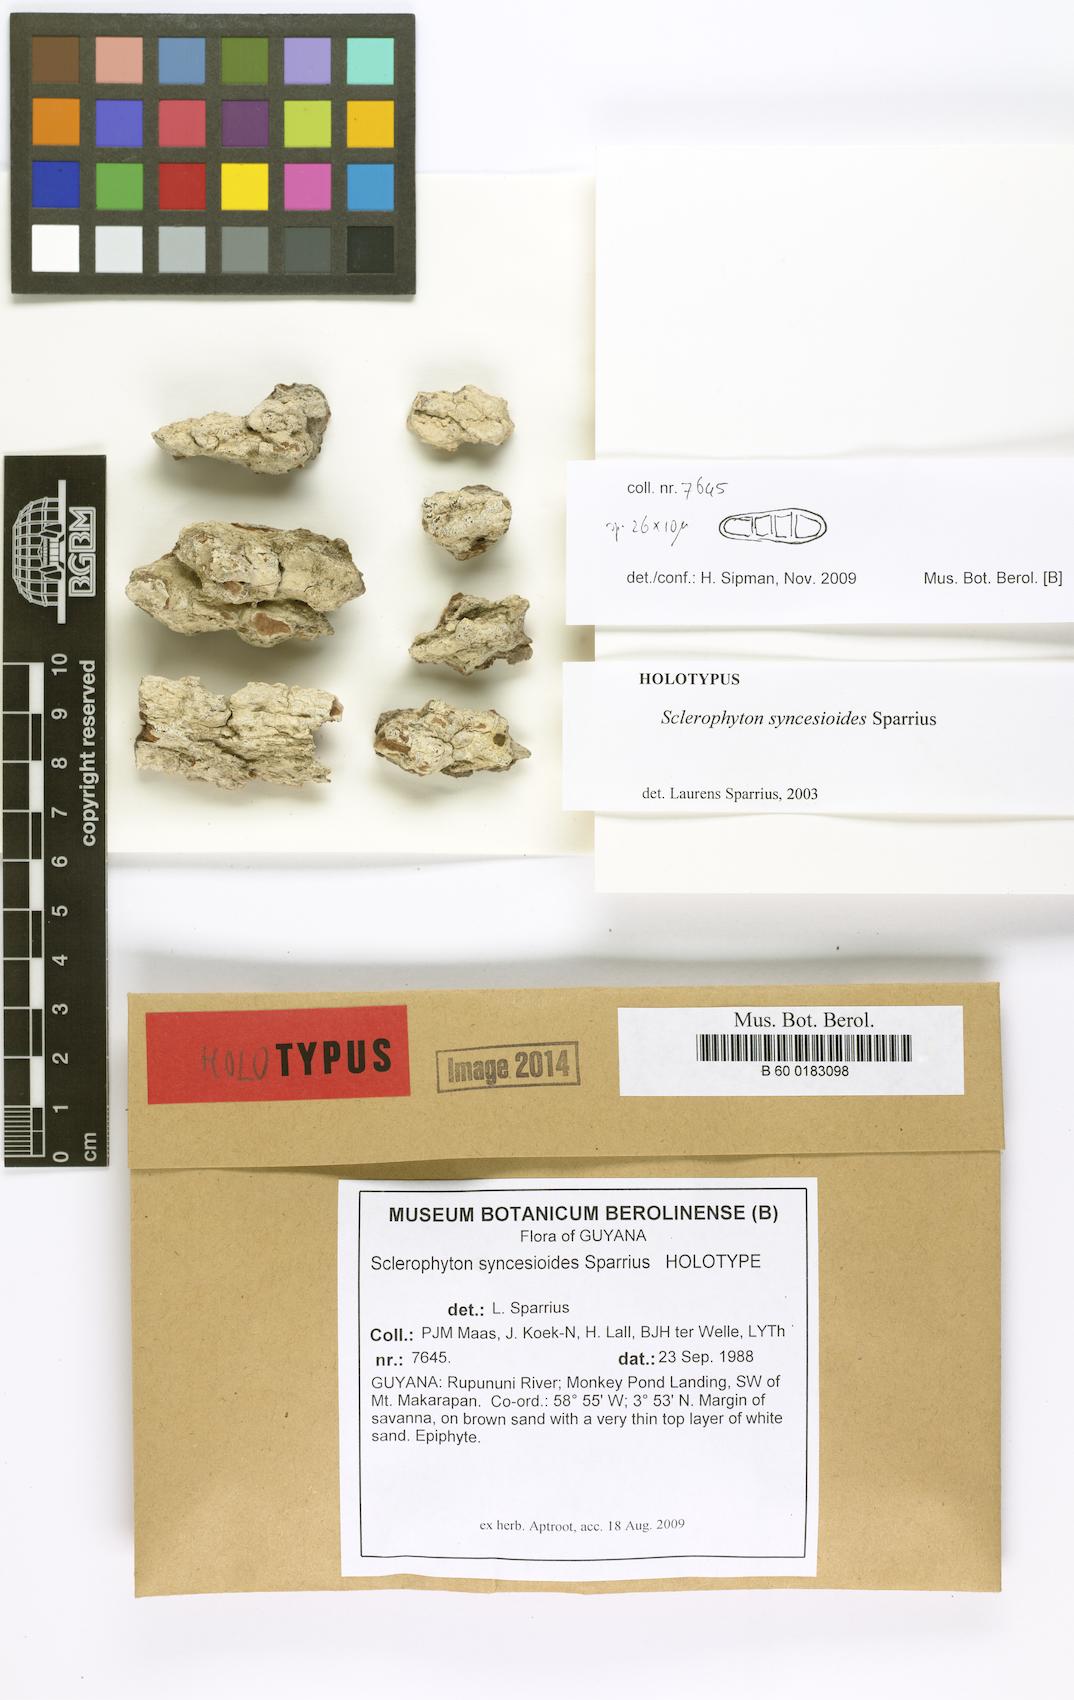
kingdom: Fungi
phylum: Ascomycota
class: Arthoniomycetes
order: Arthoniales
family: Opegraphaceae
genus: Sclerophyton
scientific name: Sclerophyton syncesioides
